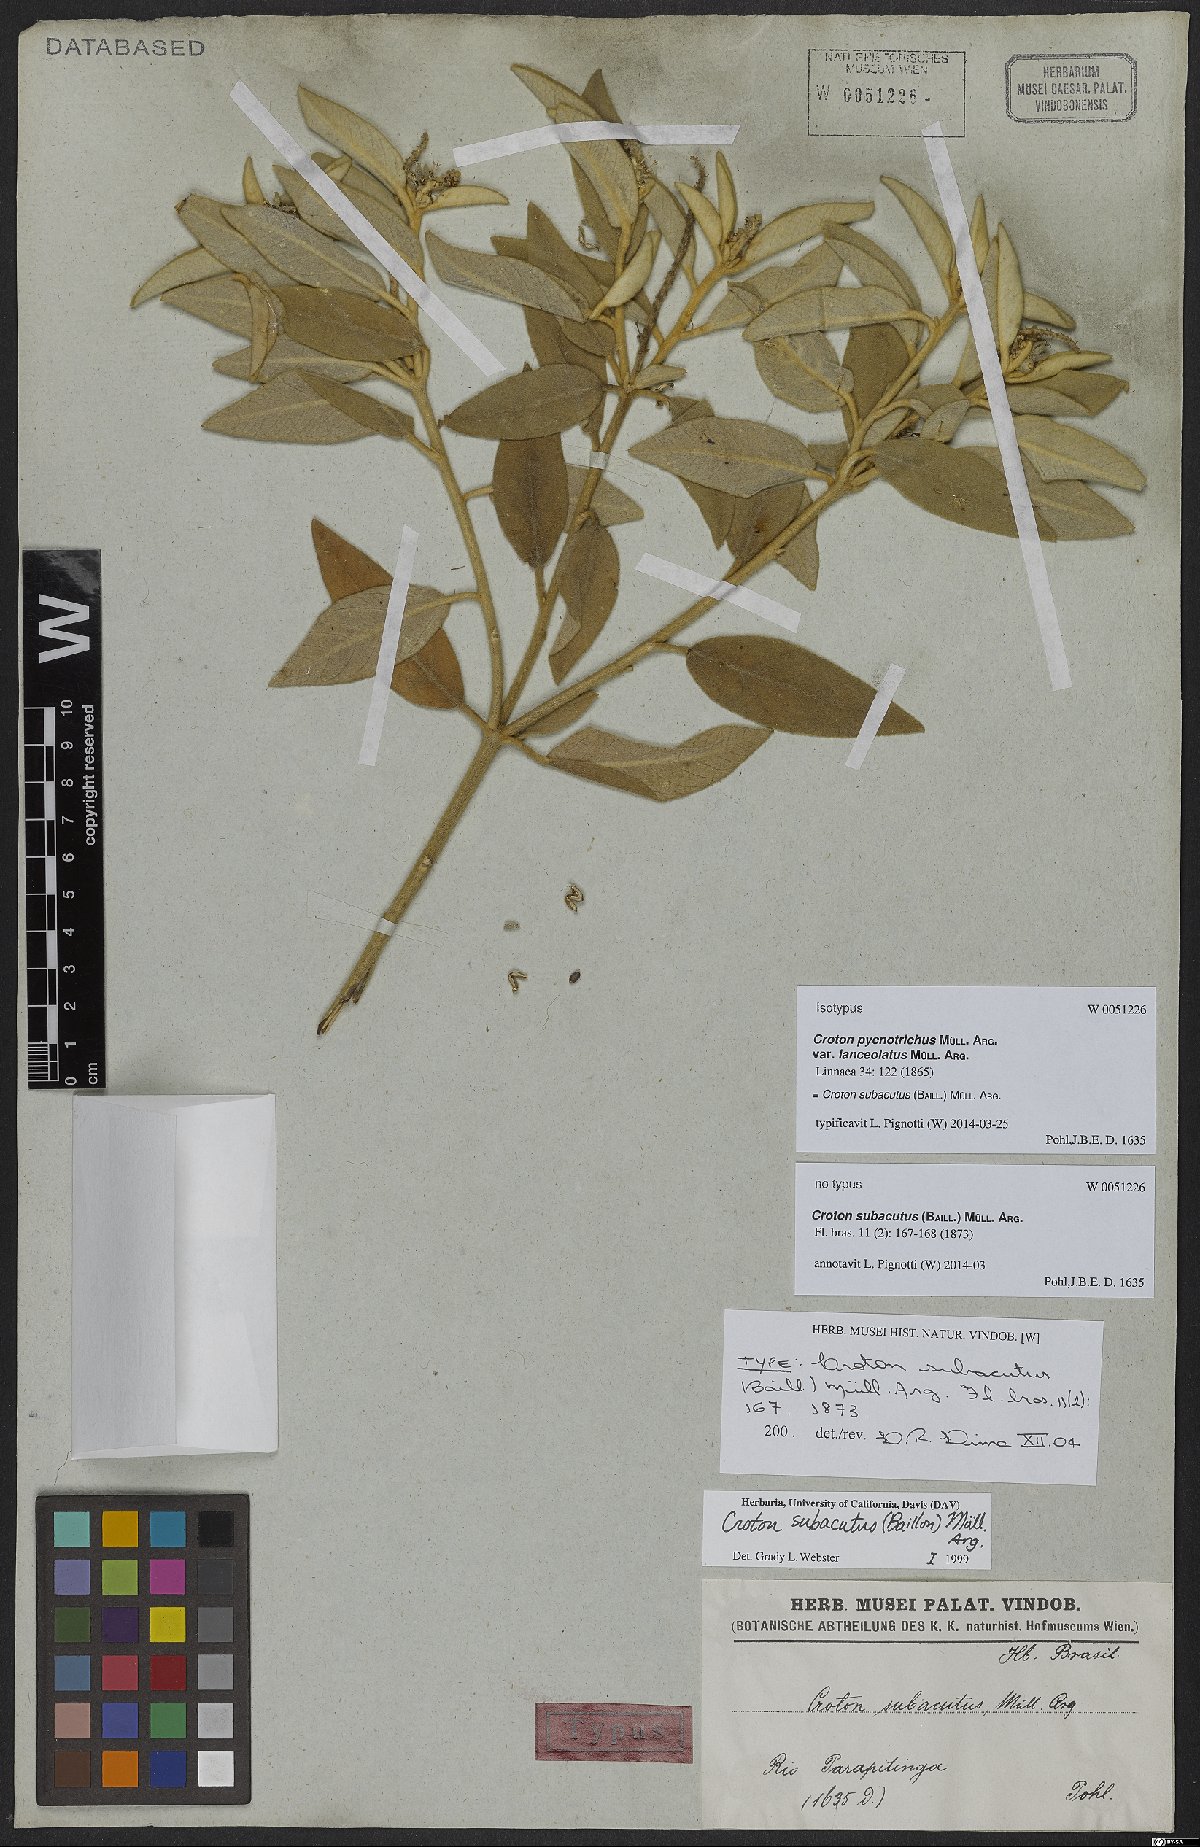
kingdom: Plantae
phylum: Tracheophyta
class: Magnoliopsida
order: Malpighiales
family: Euphorbiaceae
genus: Croton
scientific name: Croton subacutus
